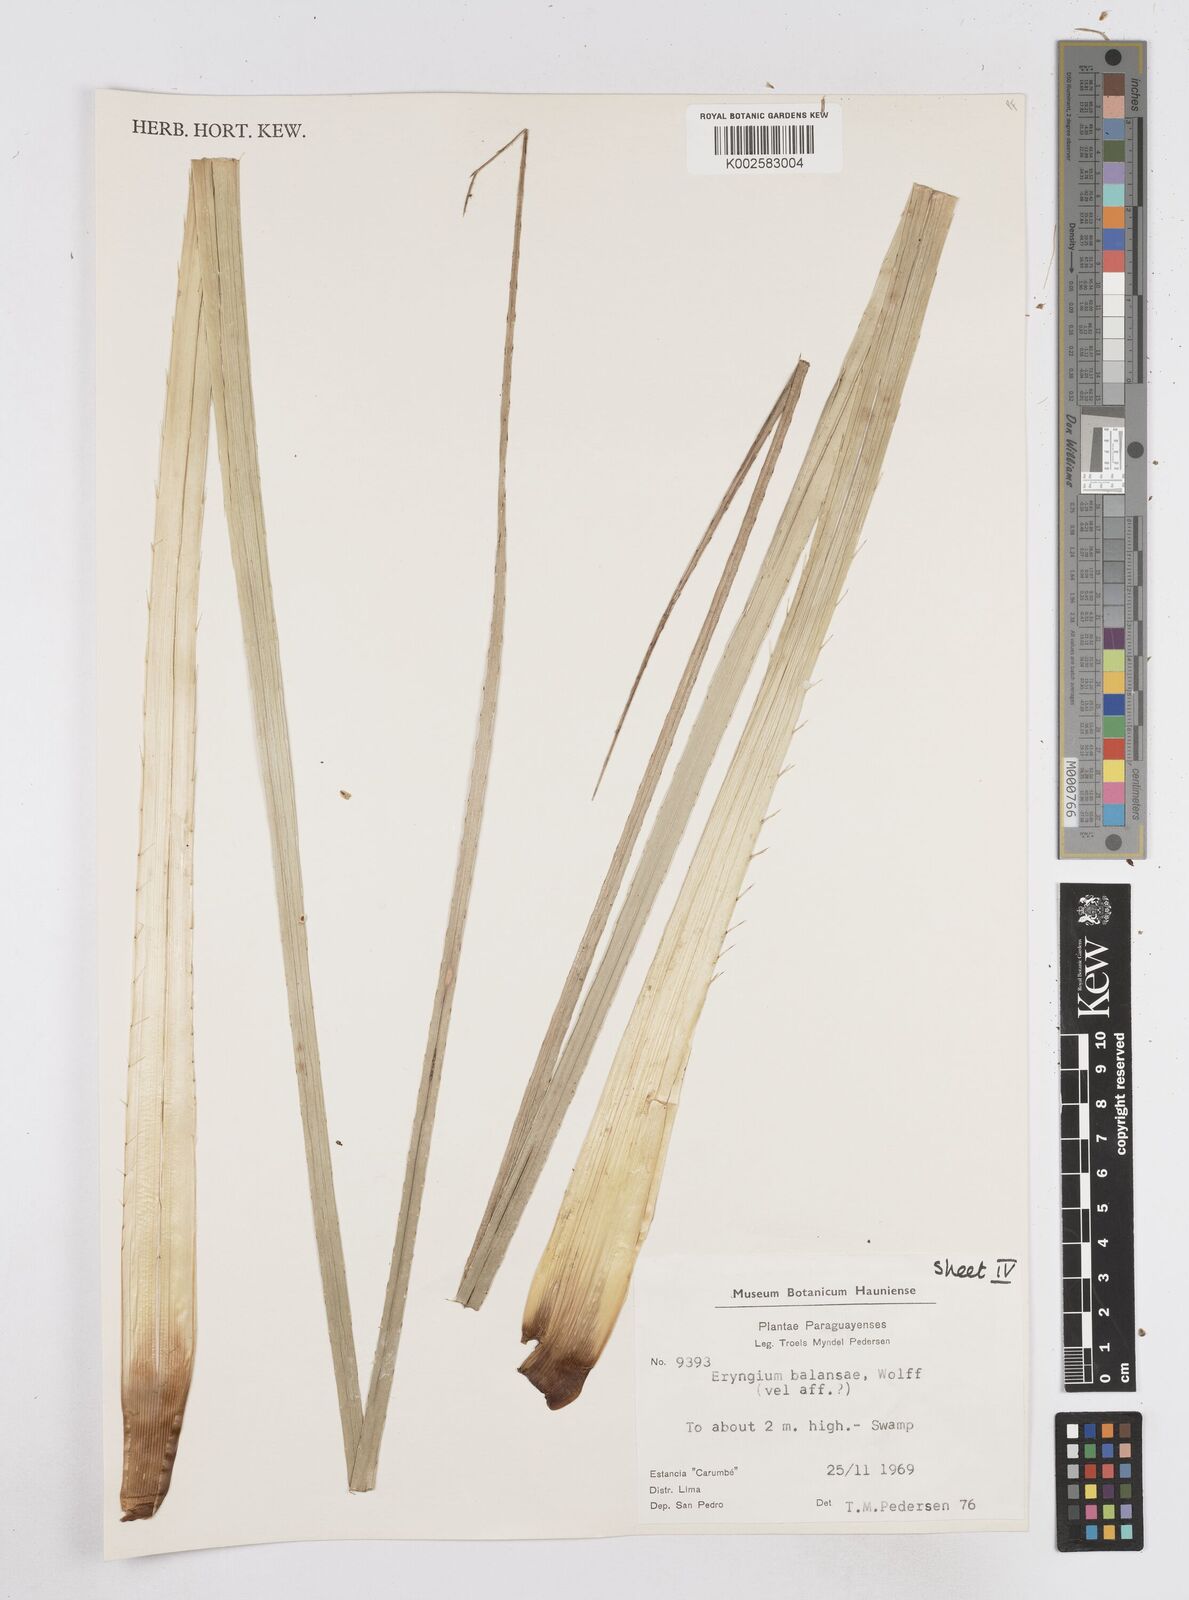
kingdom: Plantae
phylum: Tracheophyta
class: Magnoliopsida
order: Apiales
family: Apiaceae
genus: Eryngium
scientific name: Eryngium balansae
